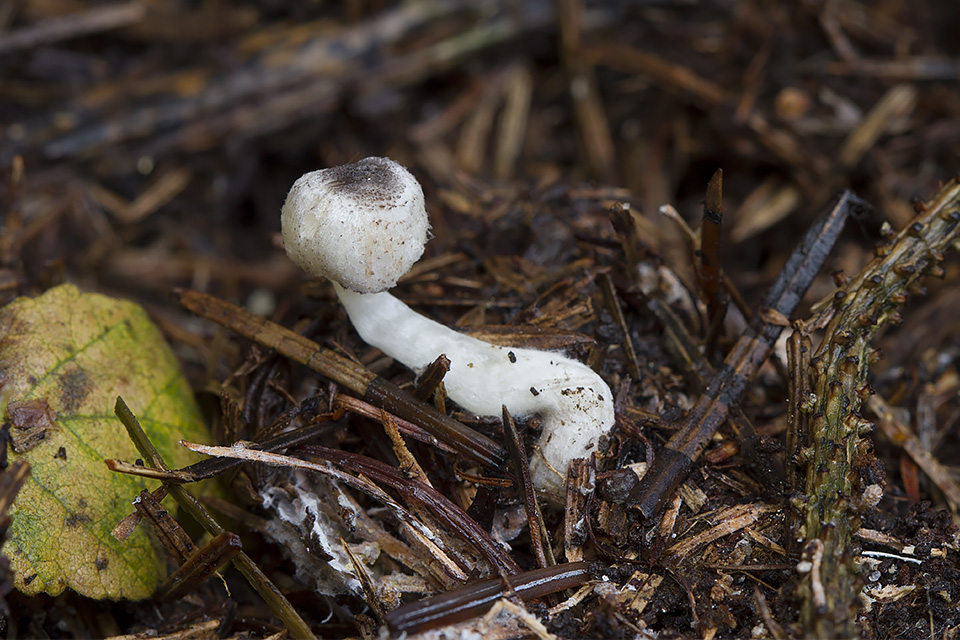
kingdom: Fungi
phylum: Basidiomycota
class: Agaricomycetes
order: Agaricales
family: Agaricaceae
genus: Leucocoprinus
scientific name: Leucocoprinus brebissonii
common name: gråsort silkehat
